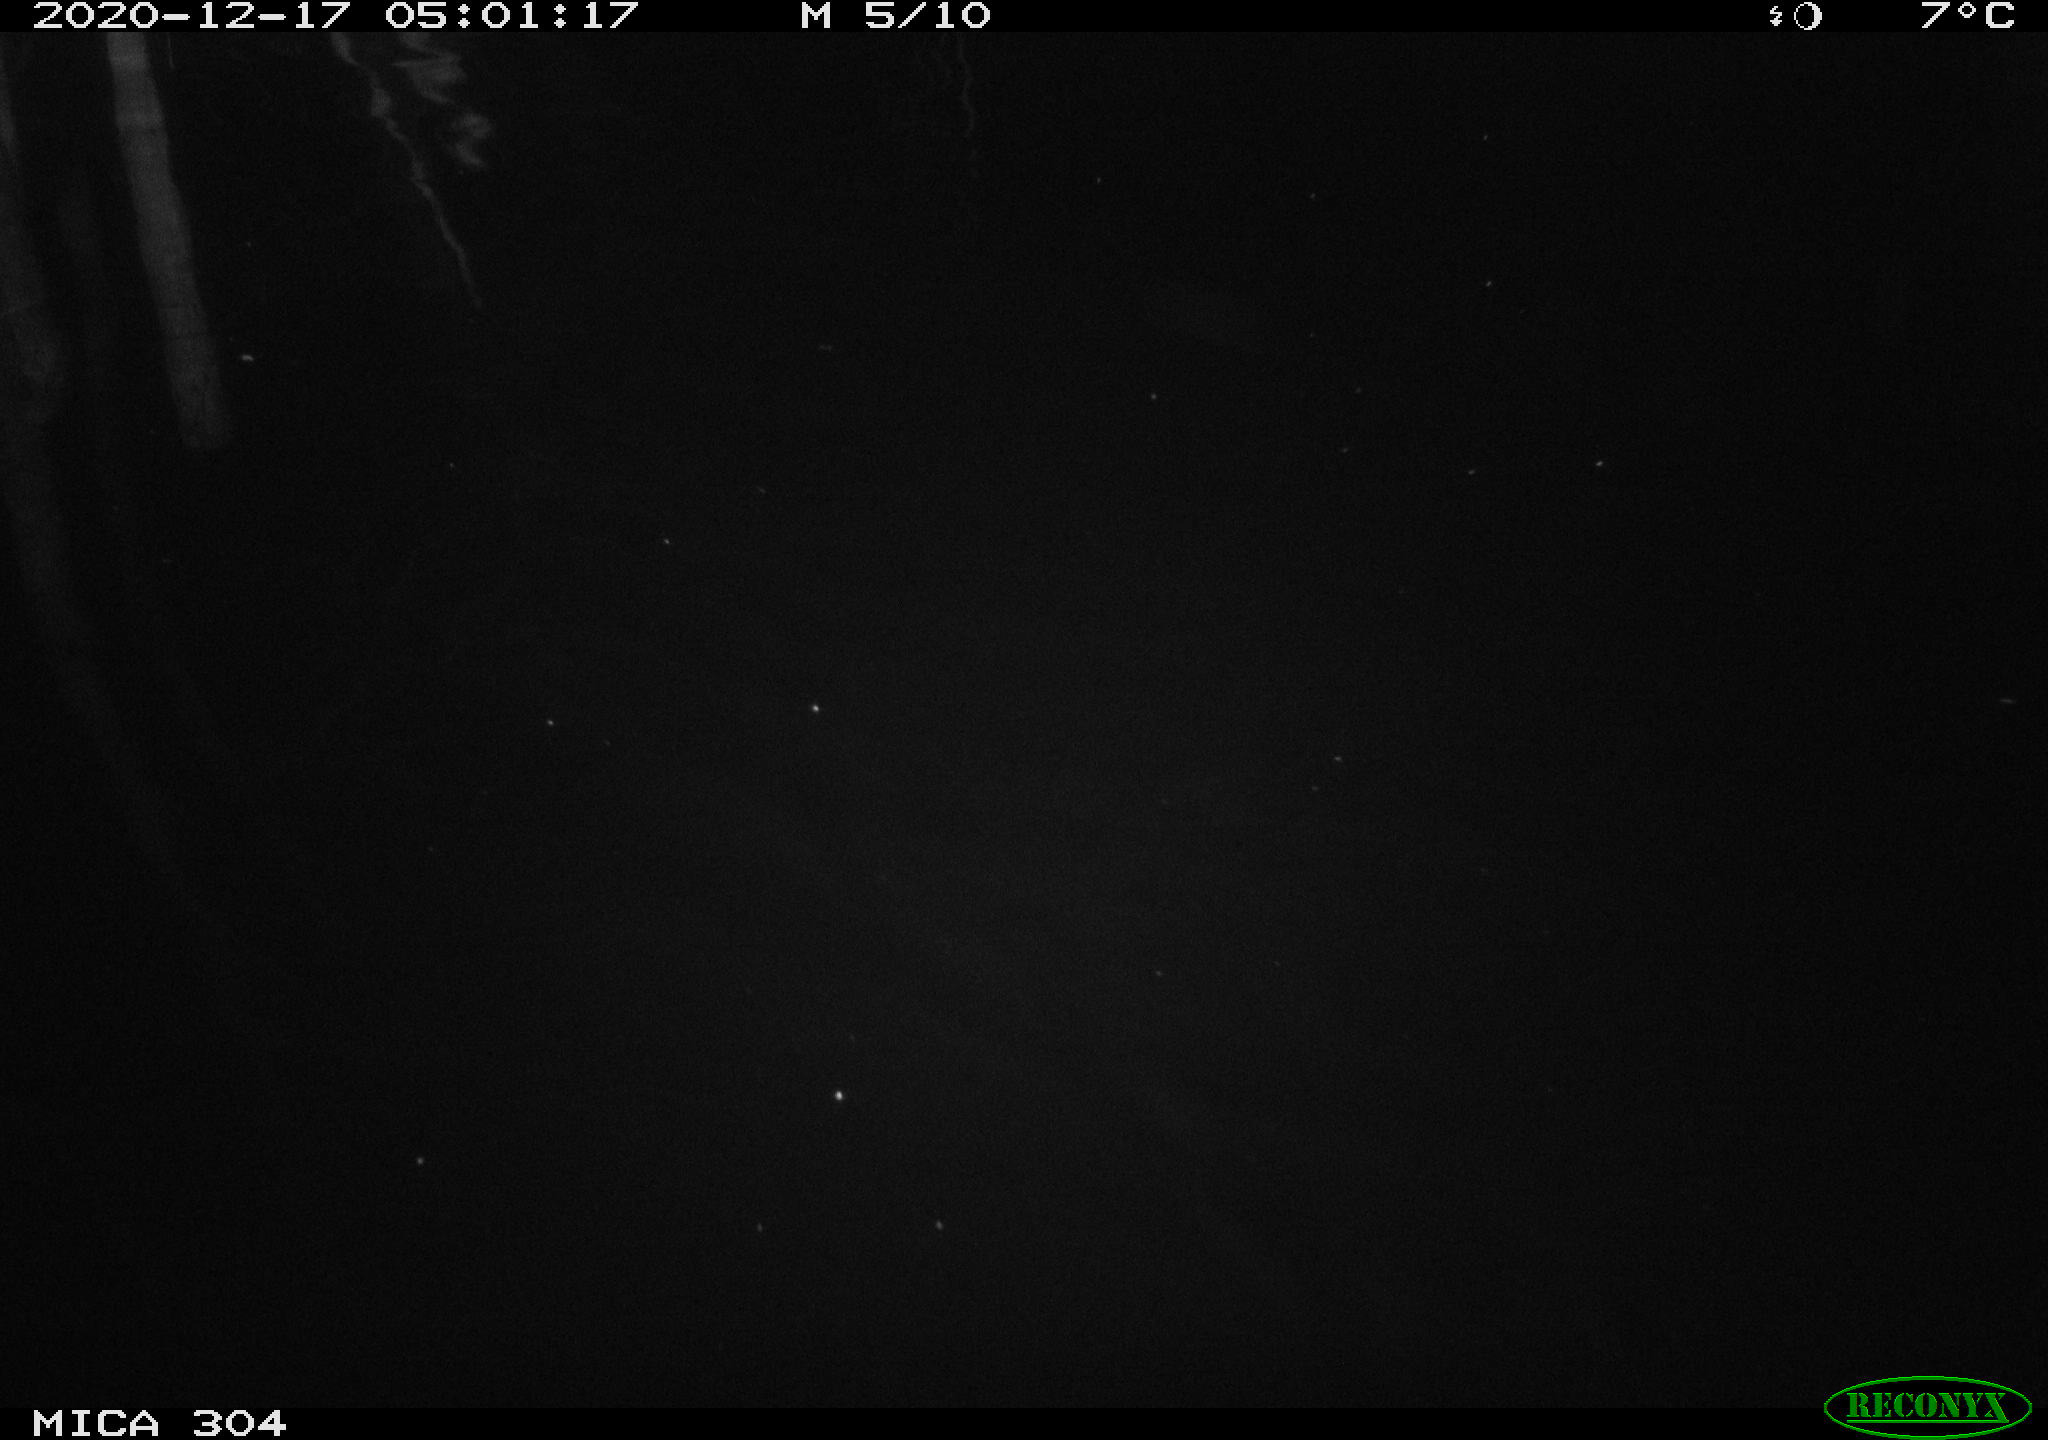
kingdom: Animalia
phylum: Chordata
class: Mammalia
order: Rodentia
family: Cricetidae
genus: Ondatra
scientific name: Ondatra zibethicus
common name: Muskrat
